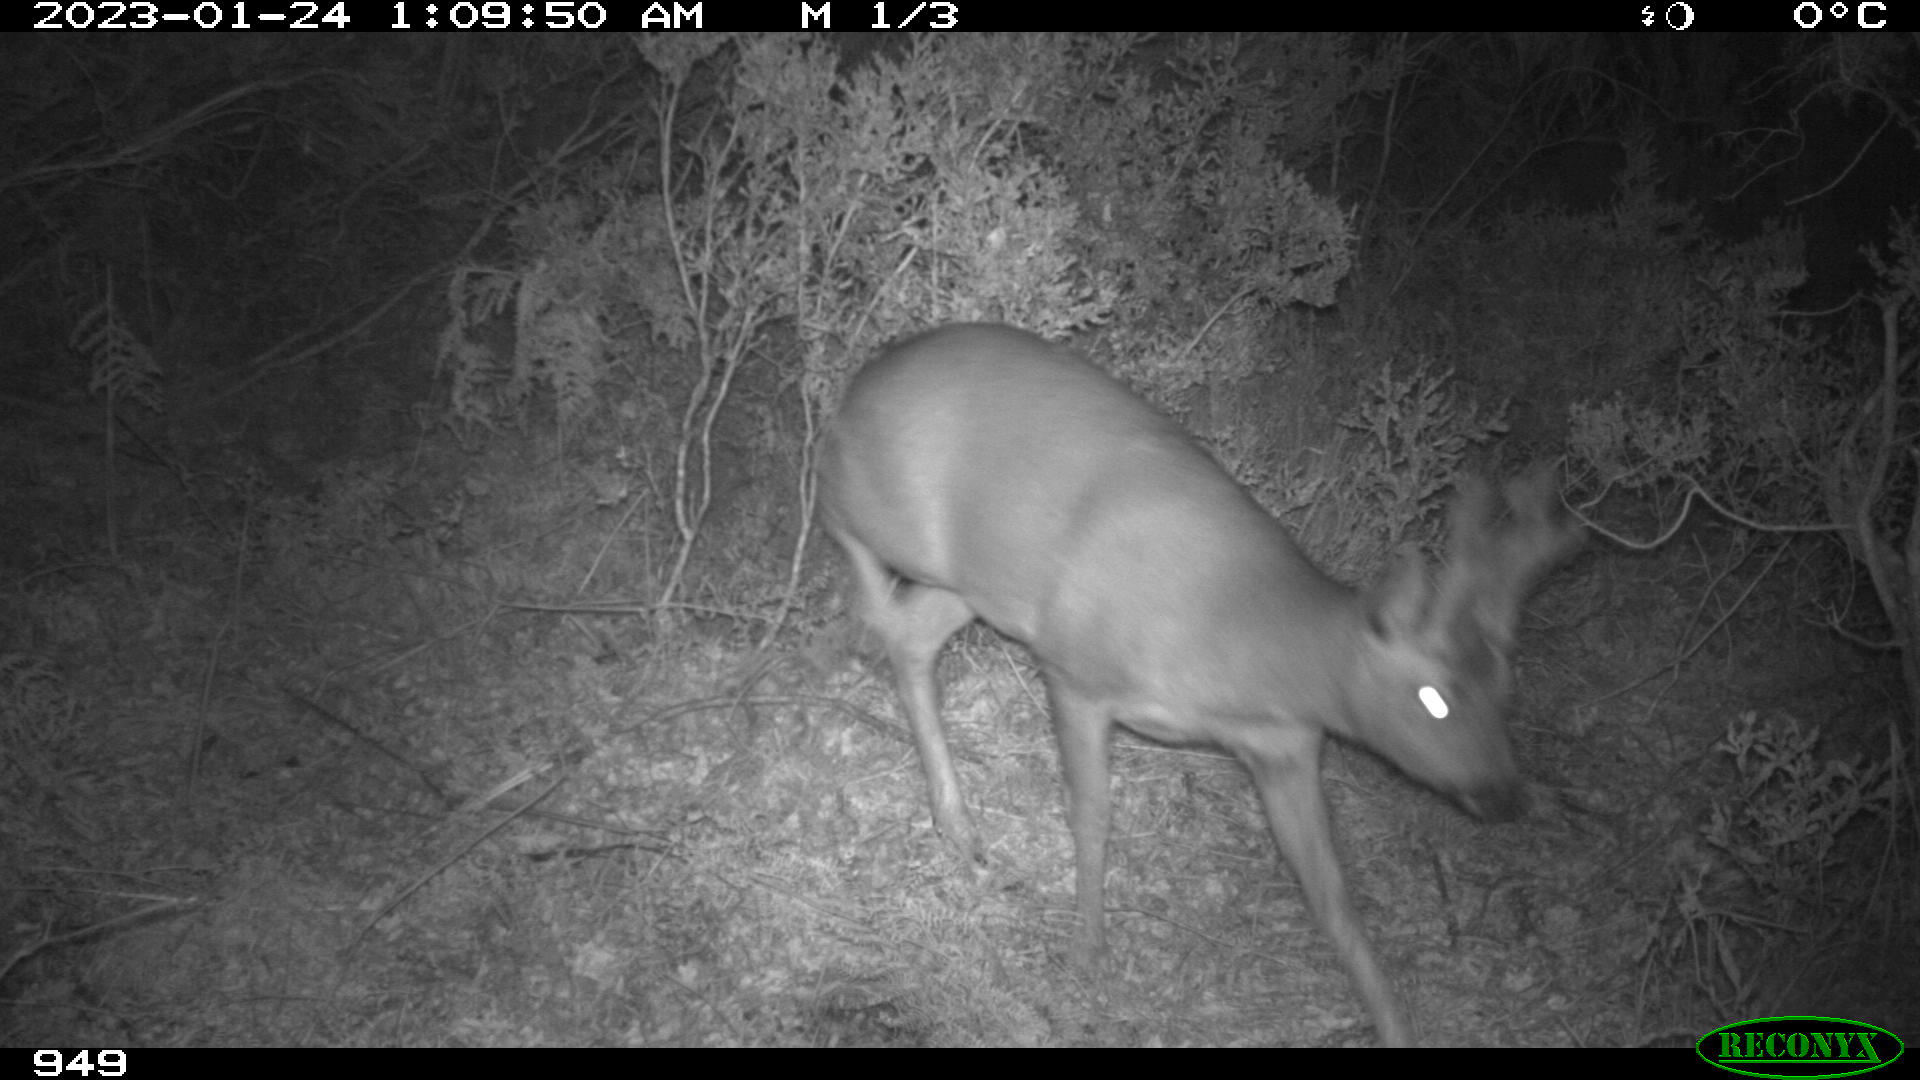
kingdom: Animalia
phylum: Chordata
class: Mammalia
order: Artiodactyla
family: Cervidae
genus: Capreolus
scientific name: Capreolus capreolus
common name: Western roe deer
